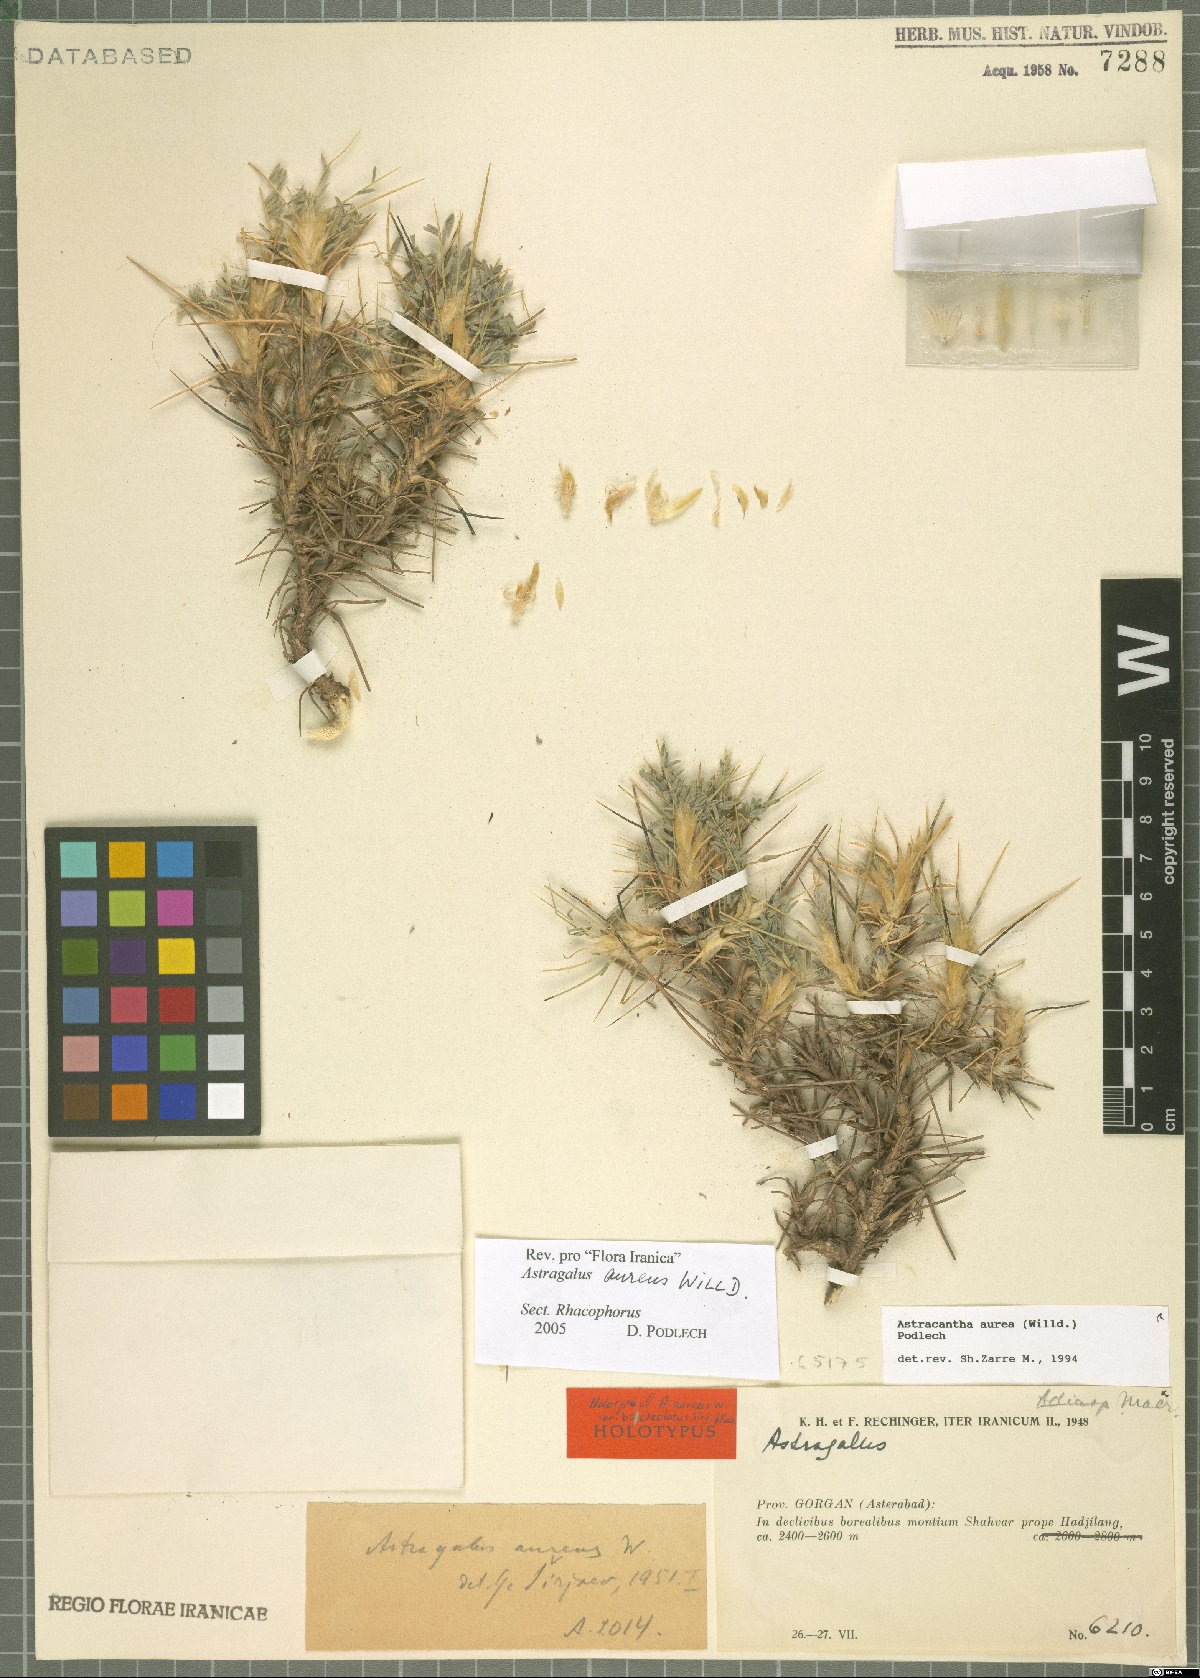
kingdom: Plantae
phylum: Tracheophyta
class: Magnoliopsida
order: Fabales
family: Fabaceae
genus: Astragalus
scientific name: Astragalus aureus
